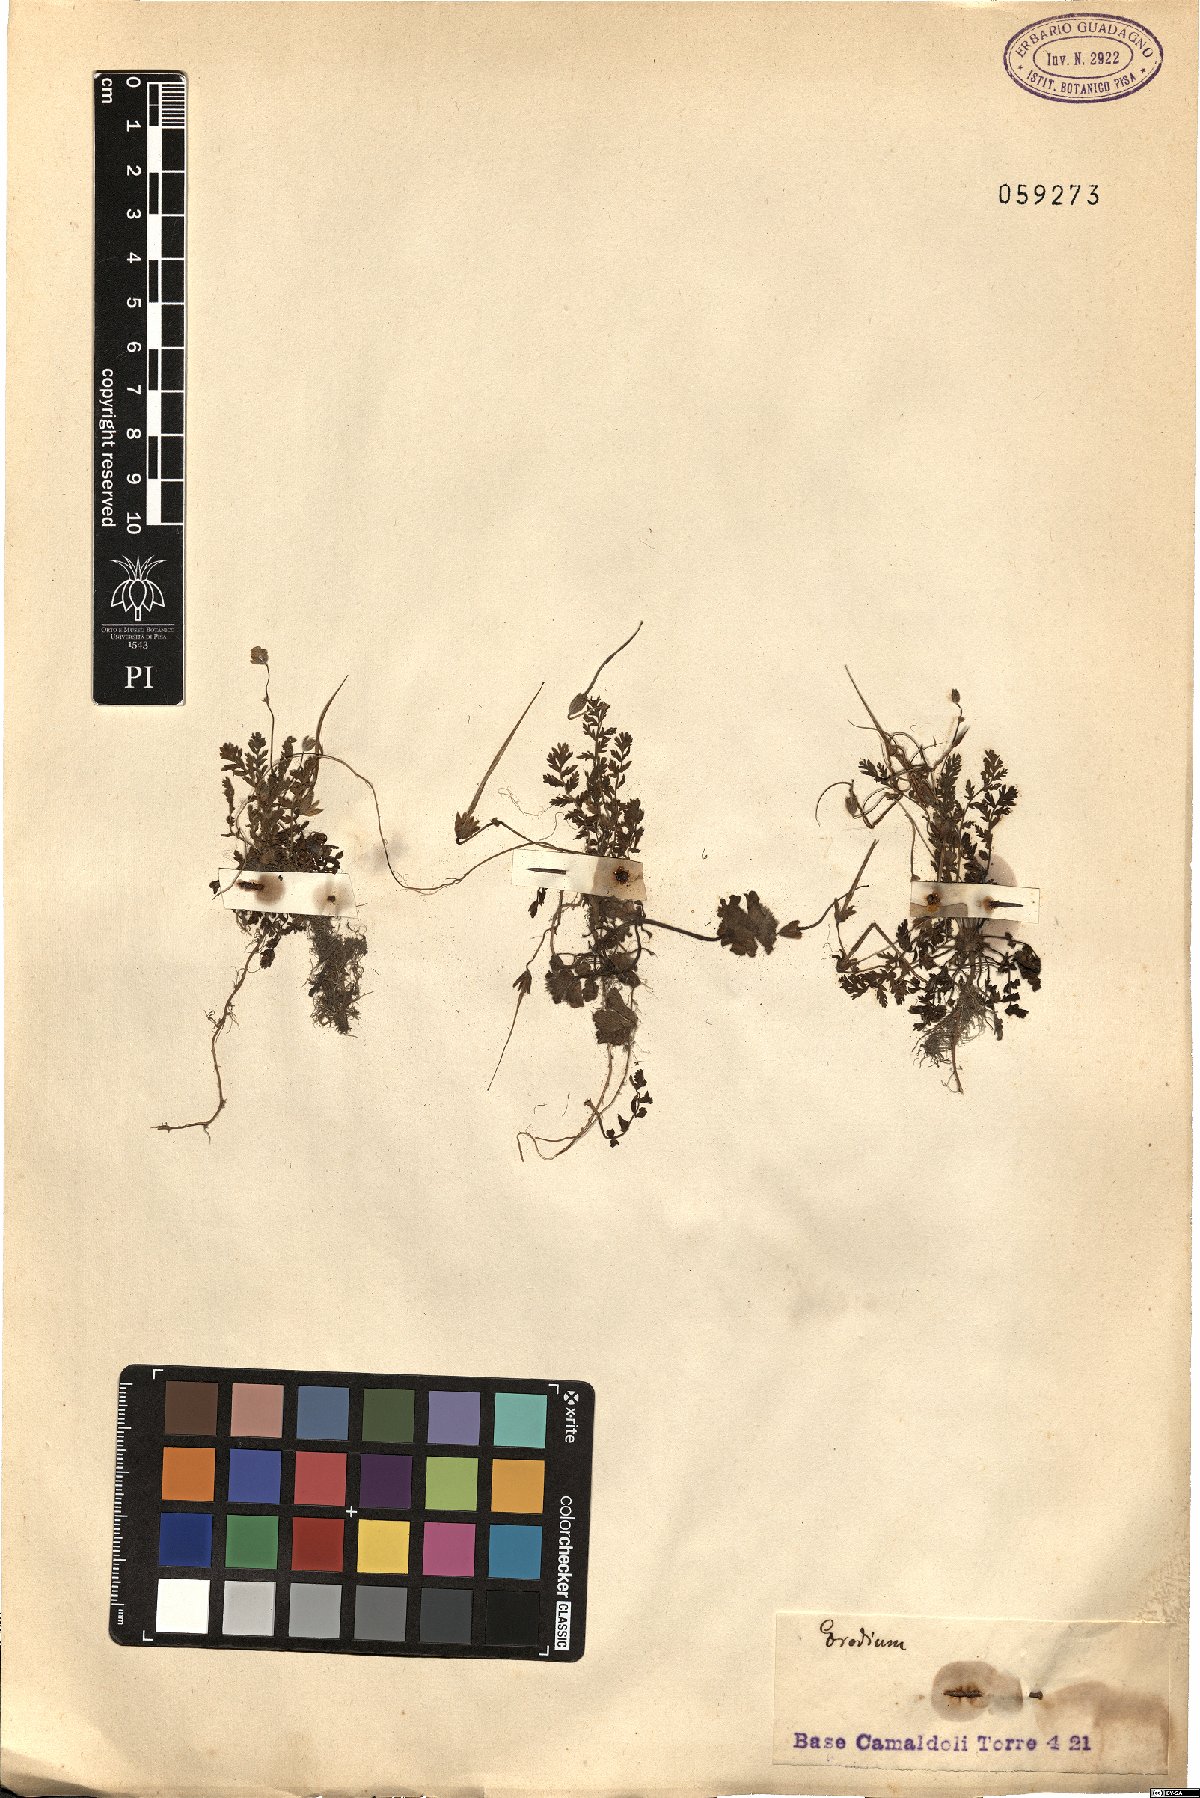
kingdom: Plantae
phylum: Tracheophyta
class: Magnoliopsida
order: Geraniales
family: Geraniaceae
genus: Erodium
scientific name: Erodium
